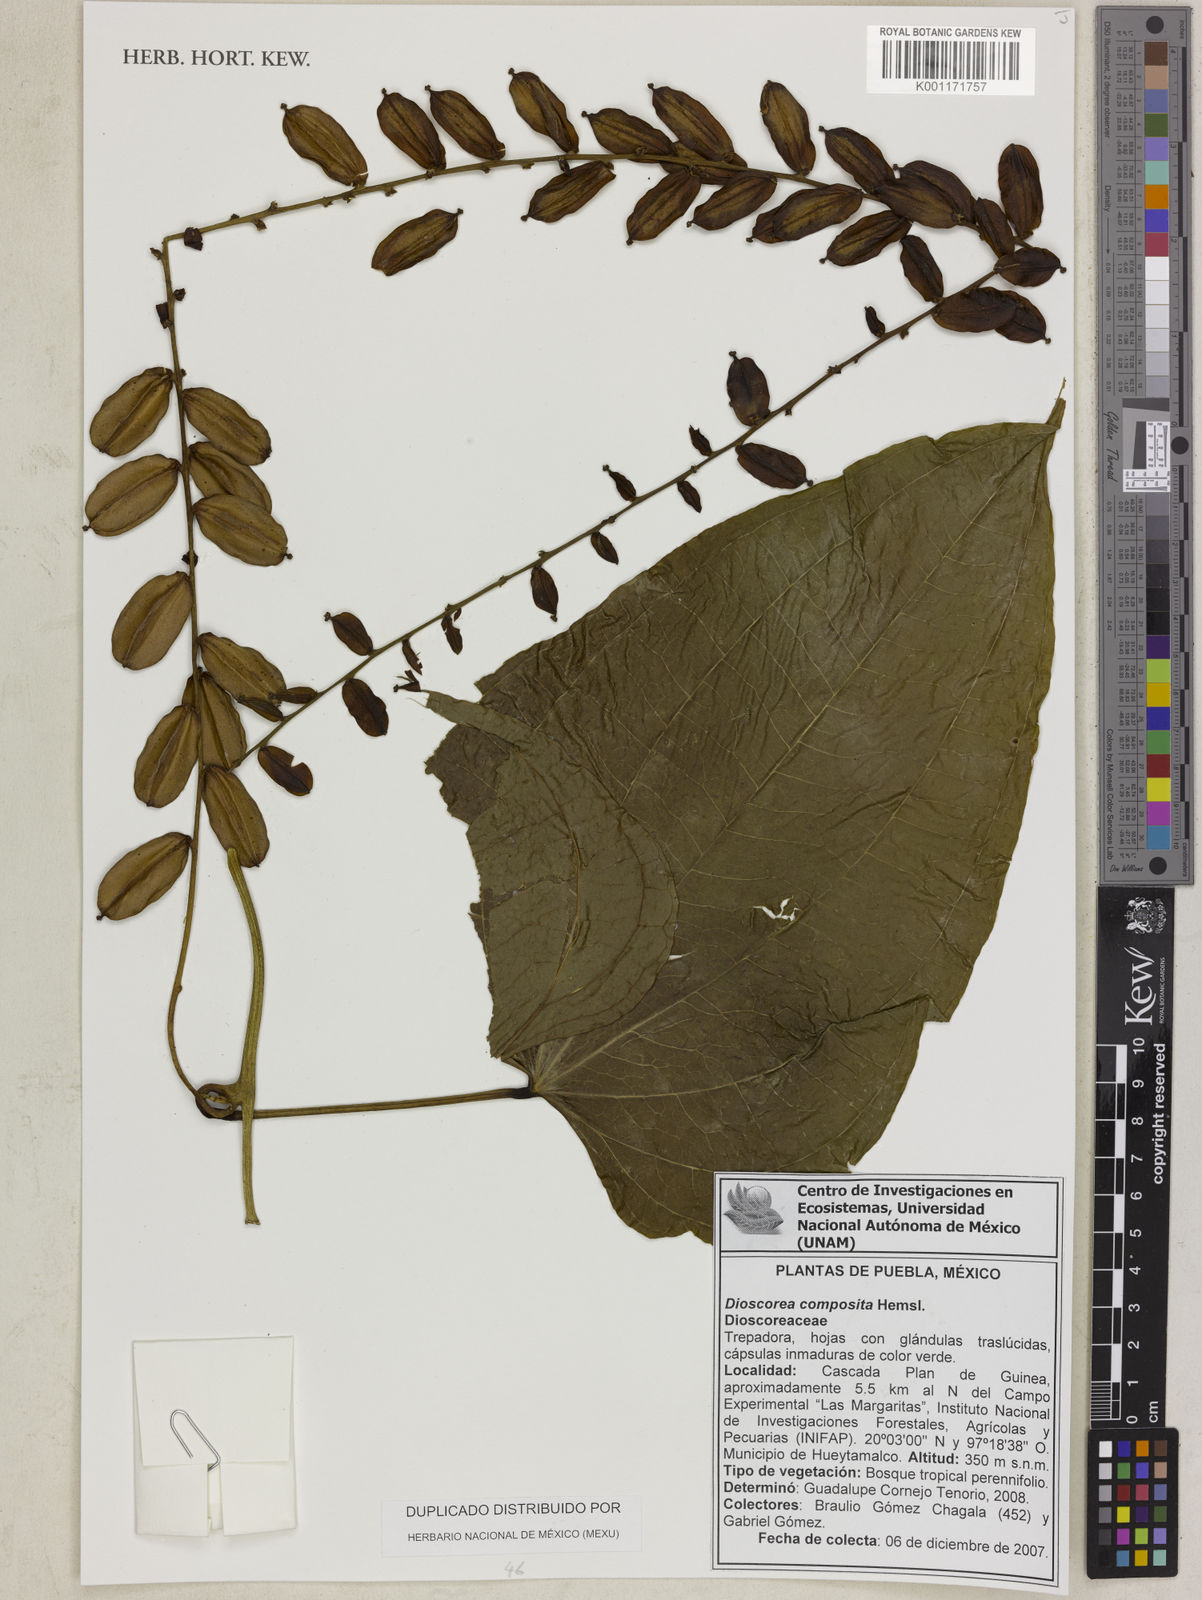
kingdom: Plantae
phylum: Tracheophyta
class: Liliopsida
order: Dioscoreales
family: Dioscoreaceae
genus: Dioscorea
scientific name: Dioscorea composita
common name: Barbasco
